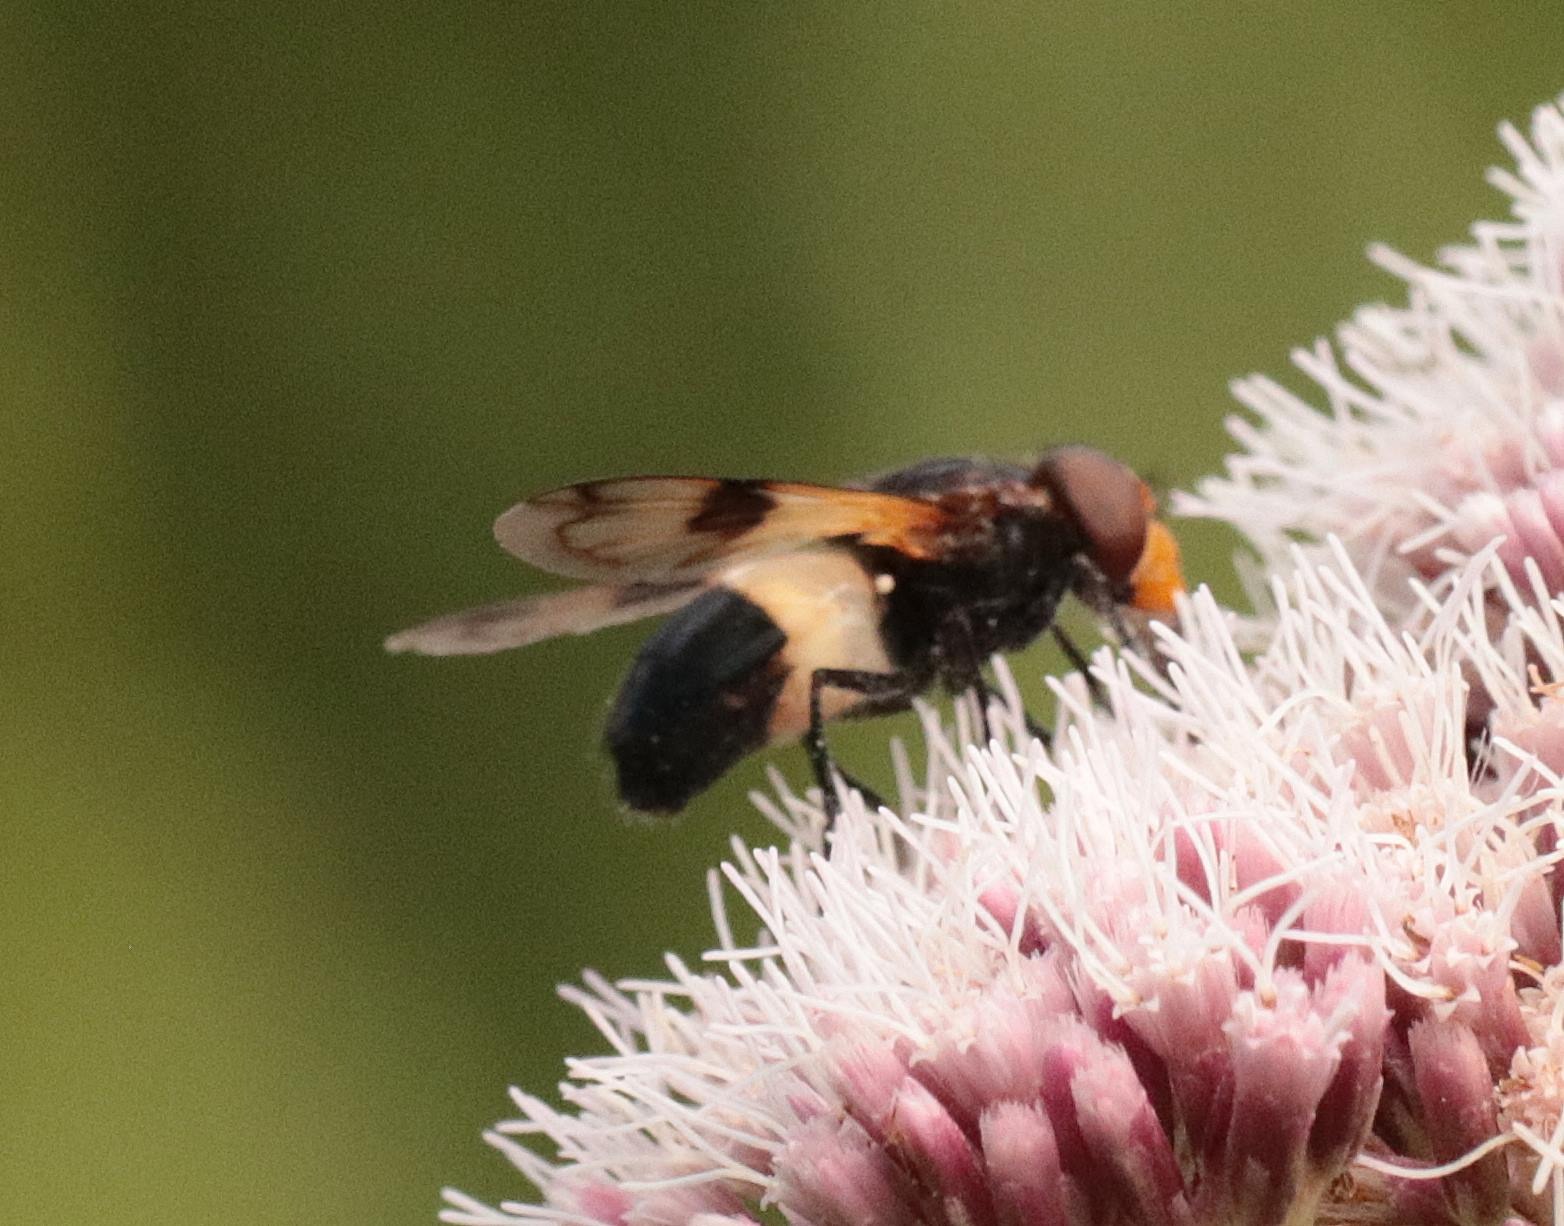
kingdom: Animalia
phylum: Arthropoda
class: Insecta
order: Diptera
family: Syrphidae
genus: Volucella
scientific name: Volucella pellucens
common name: Hvidbåndet humlesvirreflue
